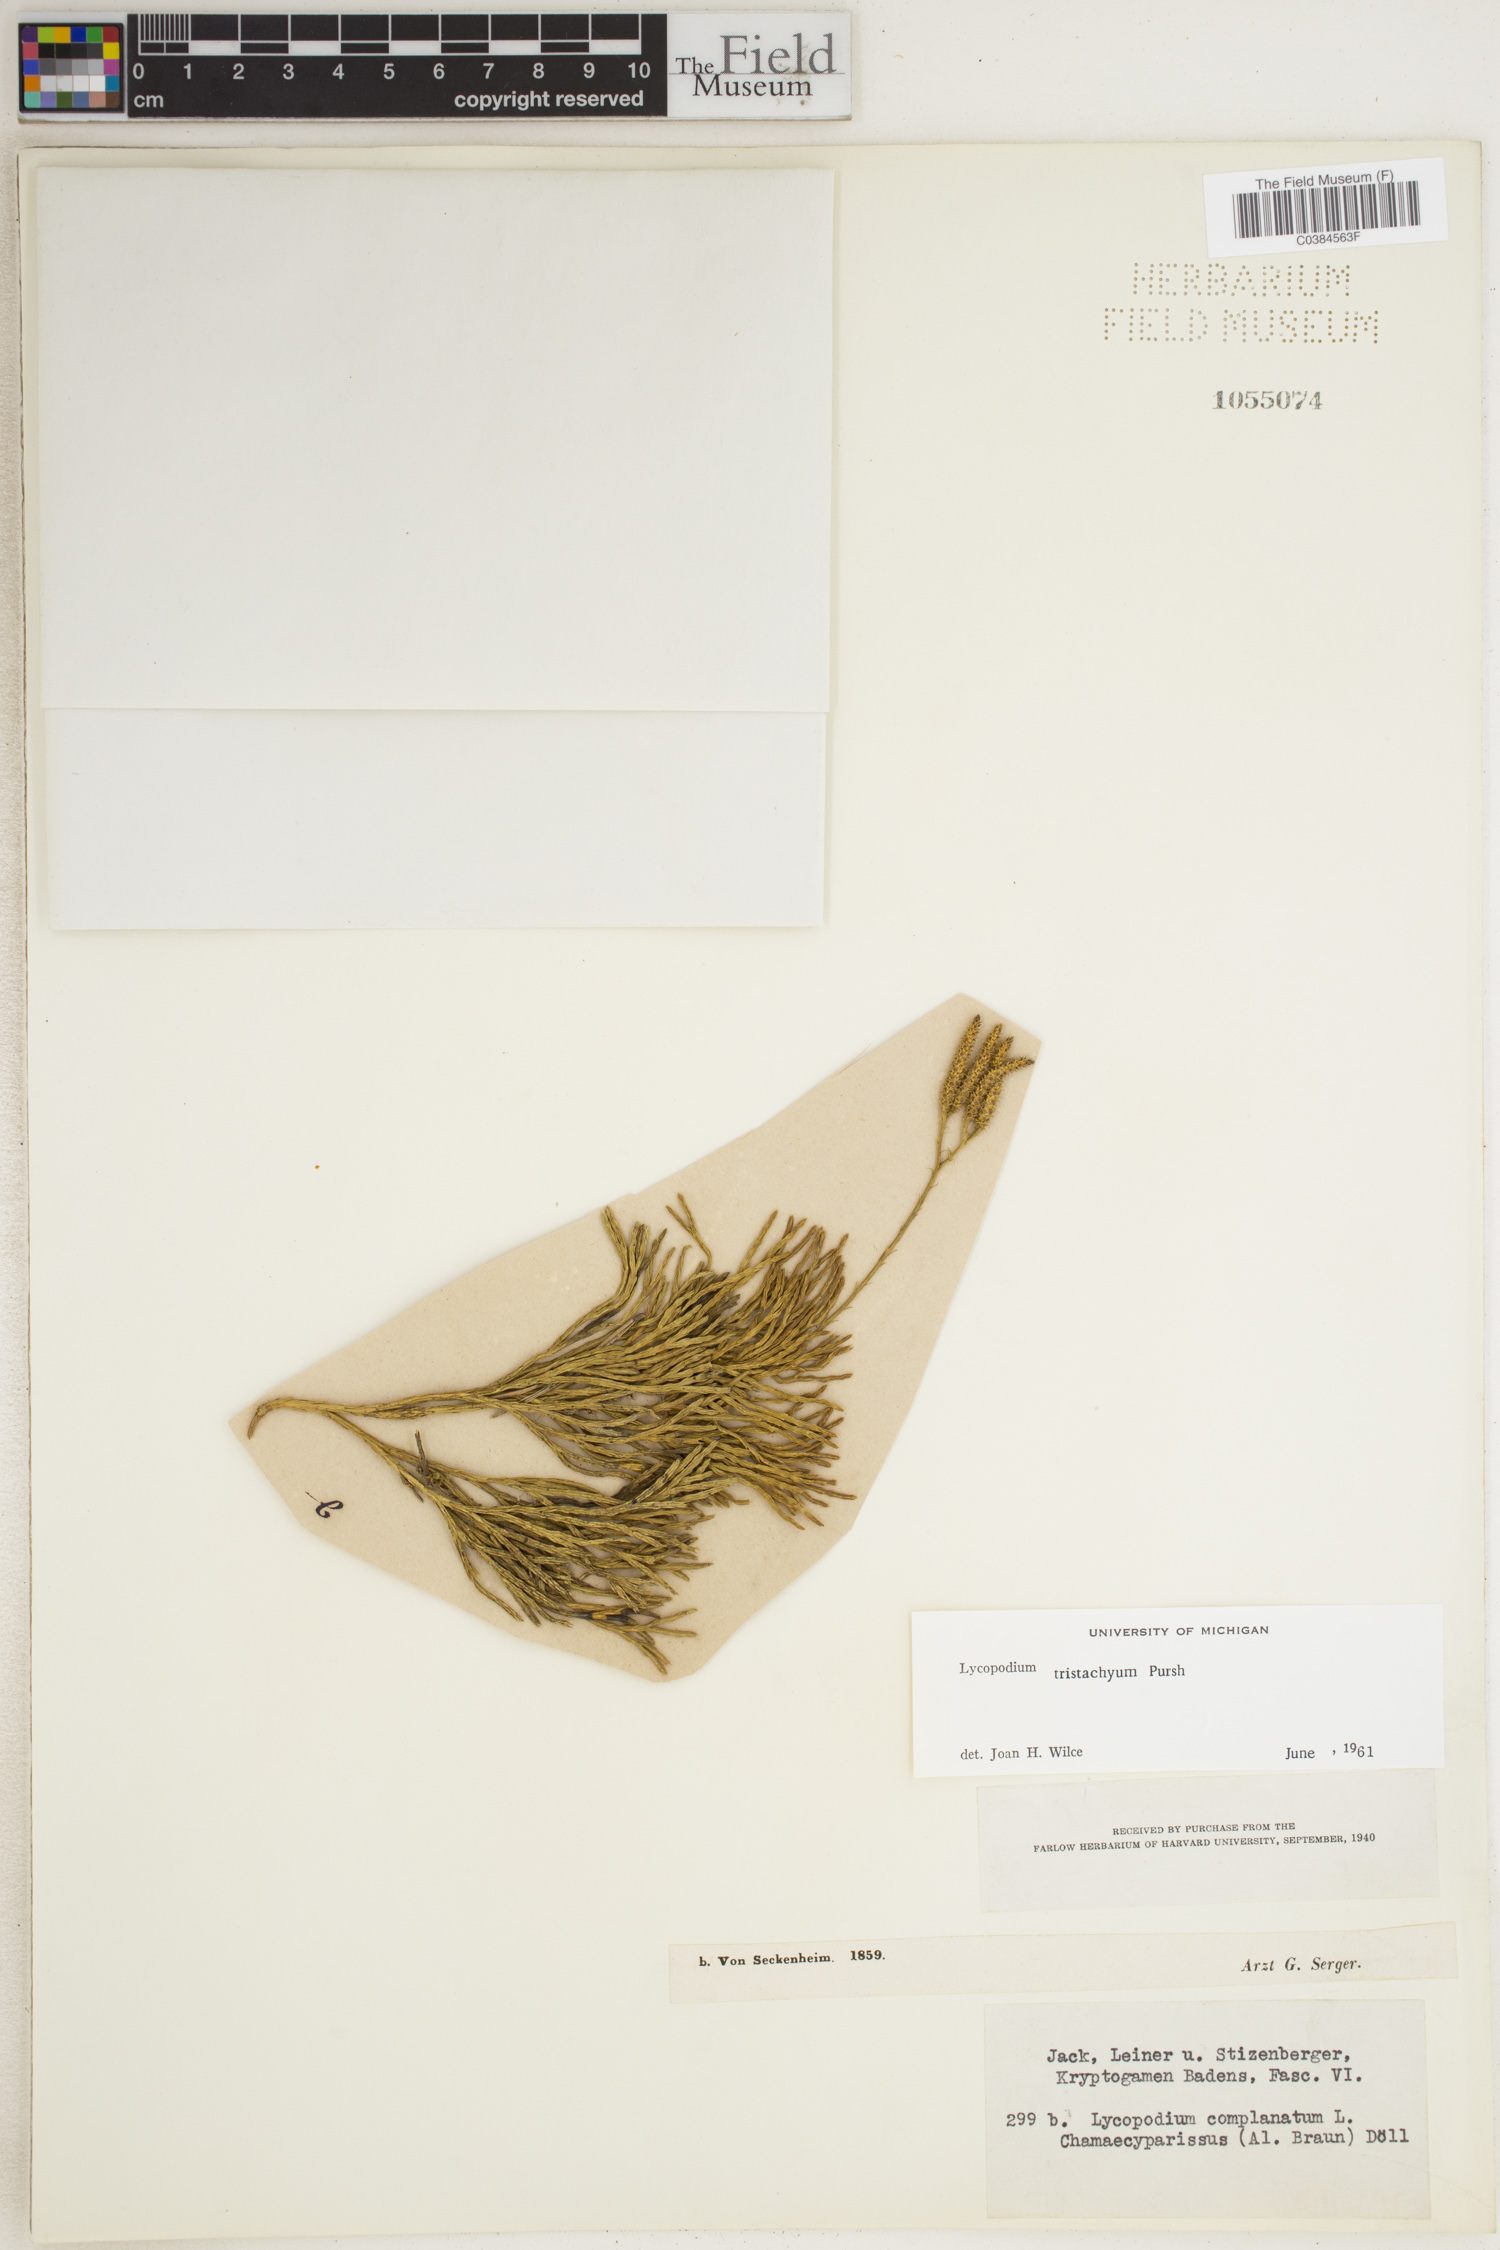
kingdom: Plantae
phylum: Tracheophyta
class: Lycopodiopsida
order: Lycopodiales
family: Lycopodiaceae
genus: Diphasiastrum
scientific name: Diphasiastrum tristachyum
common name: Blue ground-cedar
